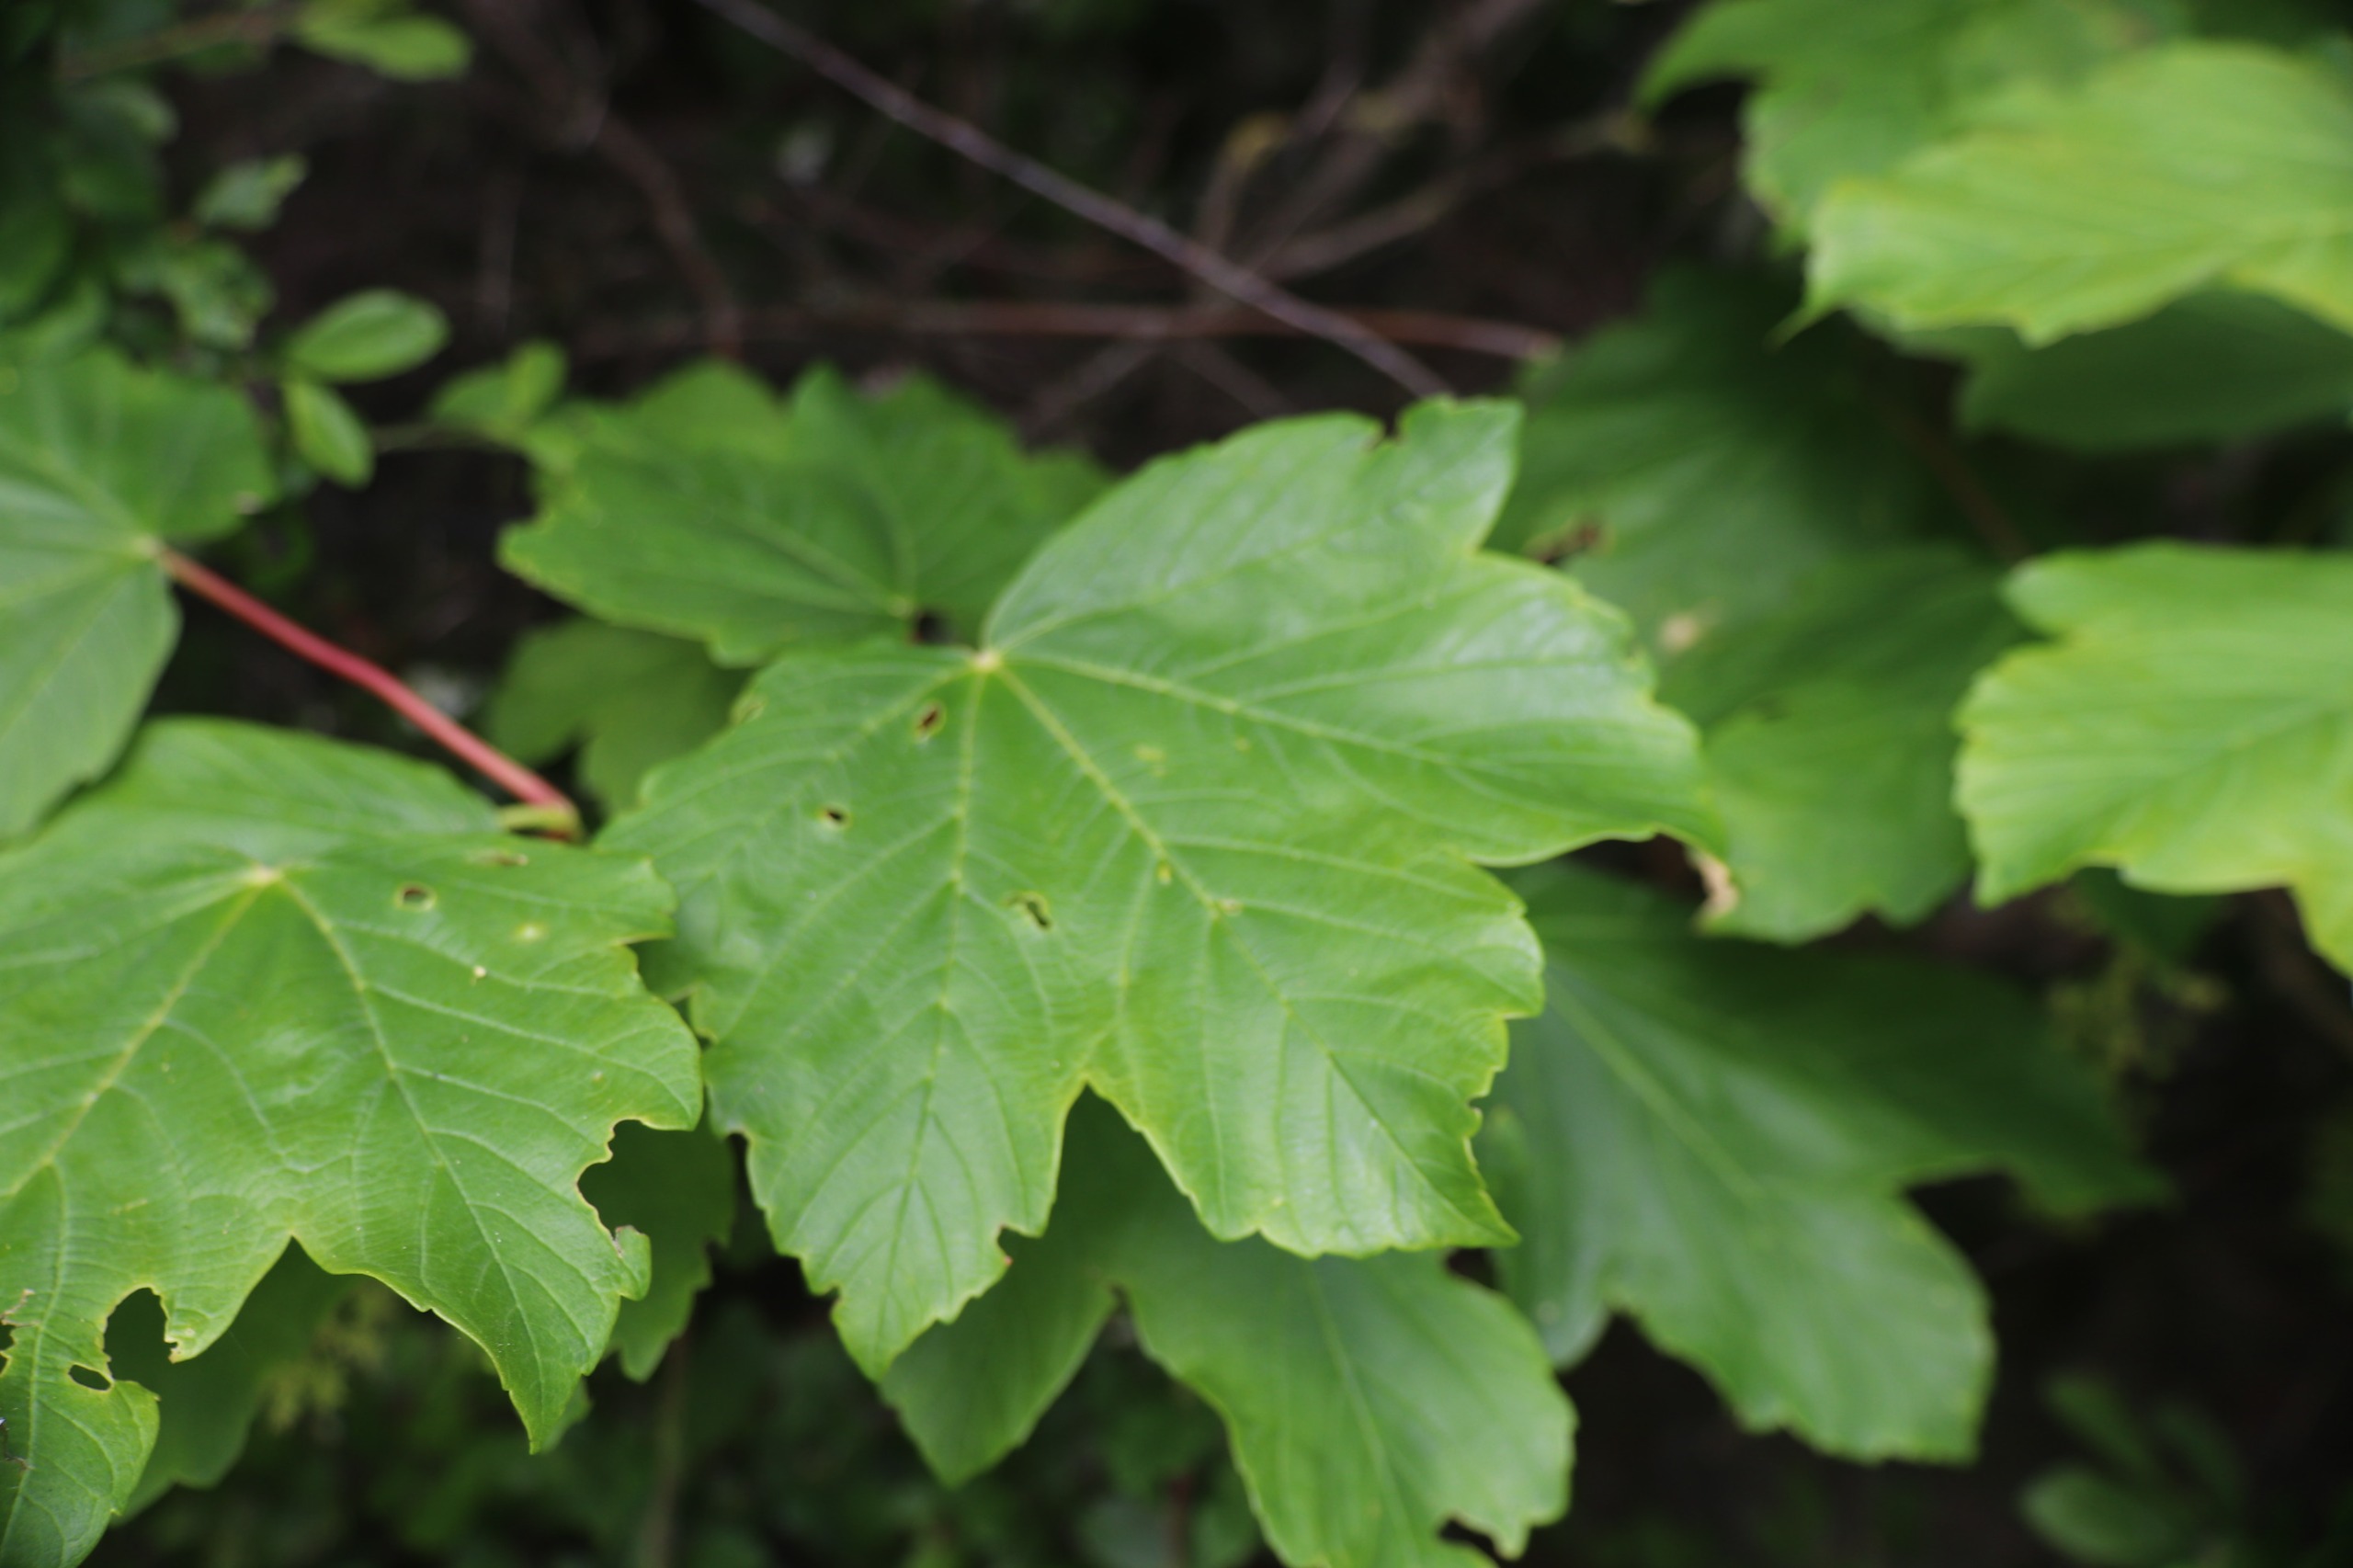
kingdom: Plantae
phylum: Tracheophyta
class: Magnoliopsida
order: Sapindales
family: Sapindaceae
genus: Acer
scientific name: Acer pseudoplatanus
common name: Ahorn
